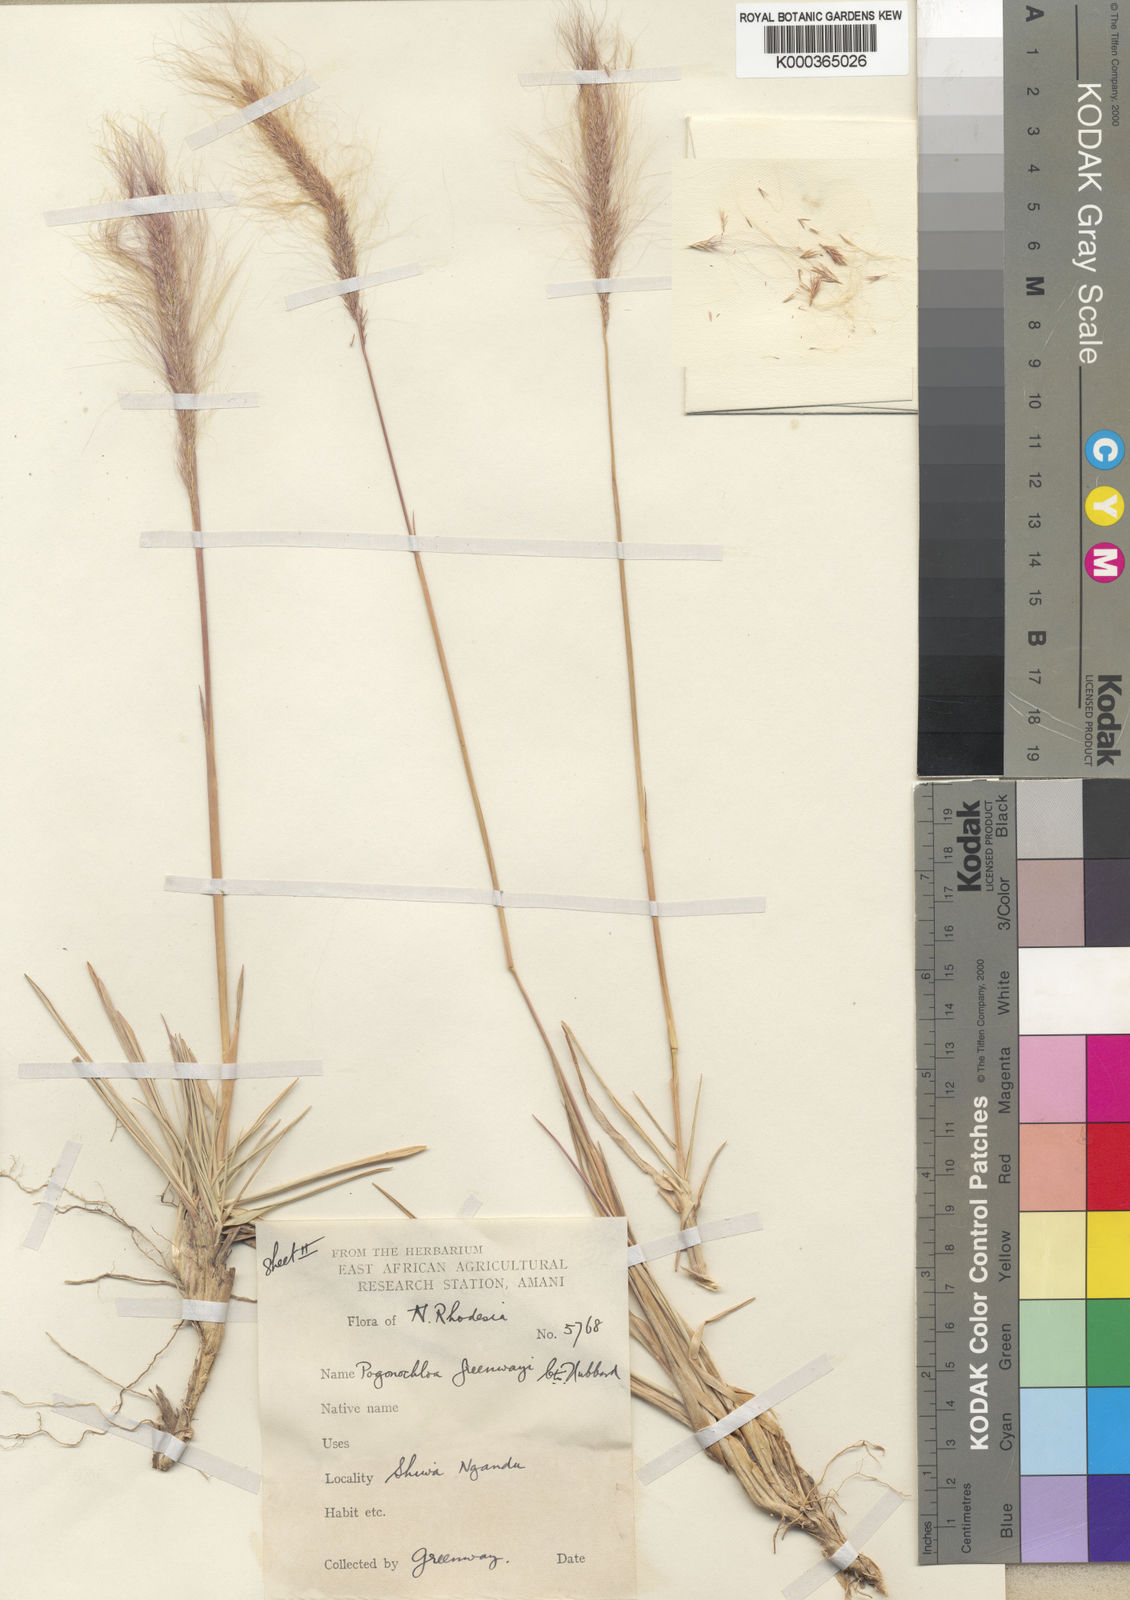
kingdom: Plantae
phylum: Tracheophyta
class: Liliopsida
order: Poales
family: Poaceae
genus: Pogonochloa
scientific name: Pogonochloa greenwayi
